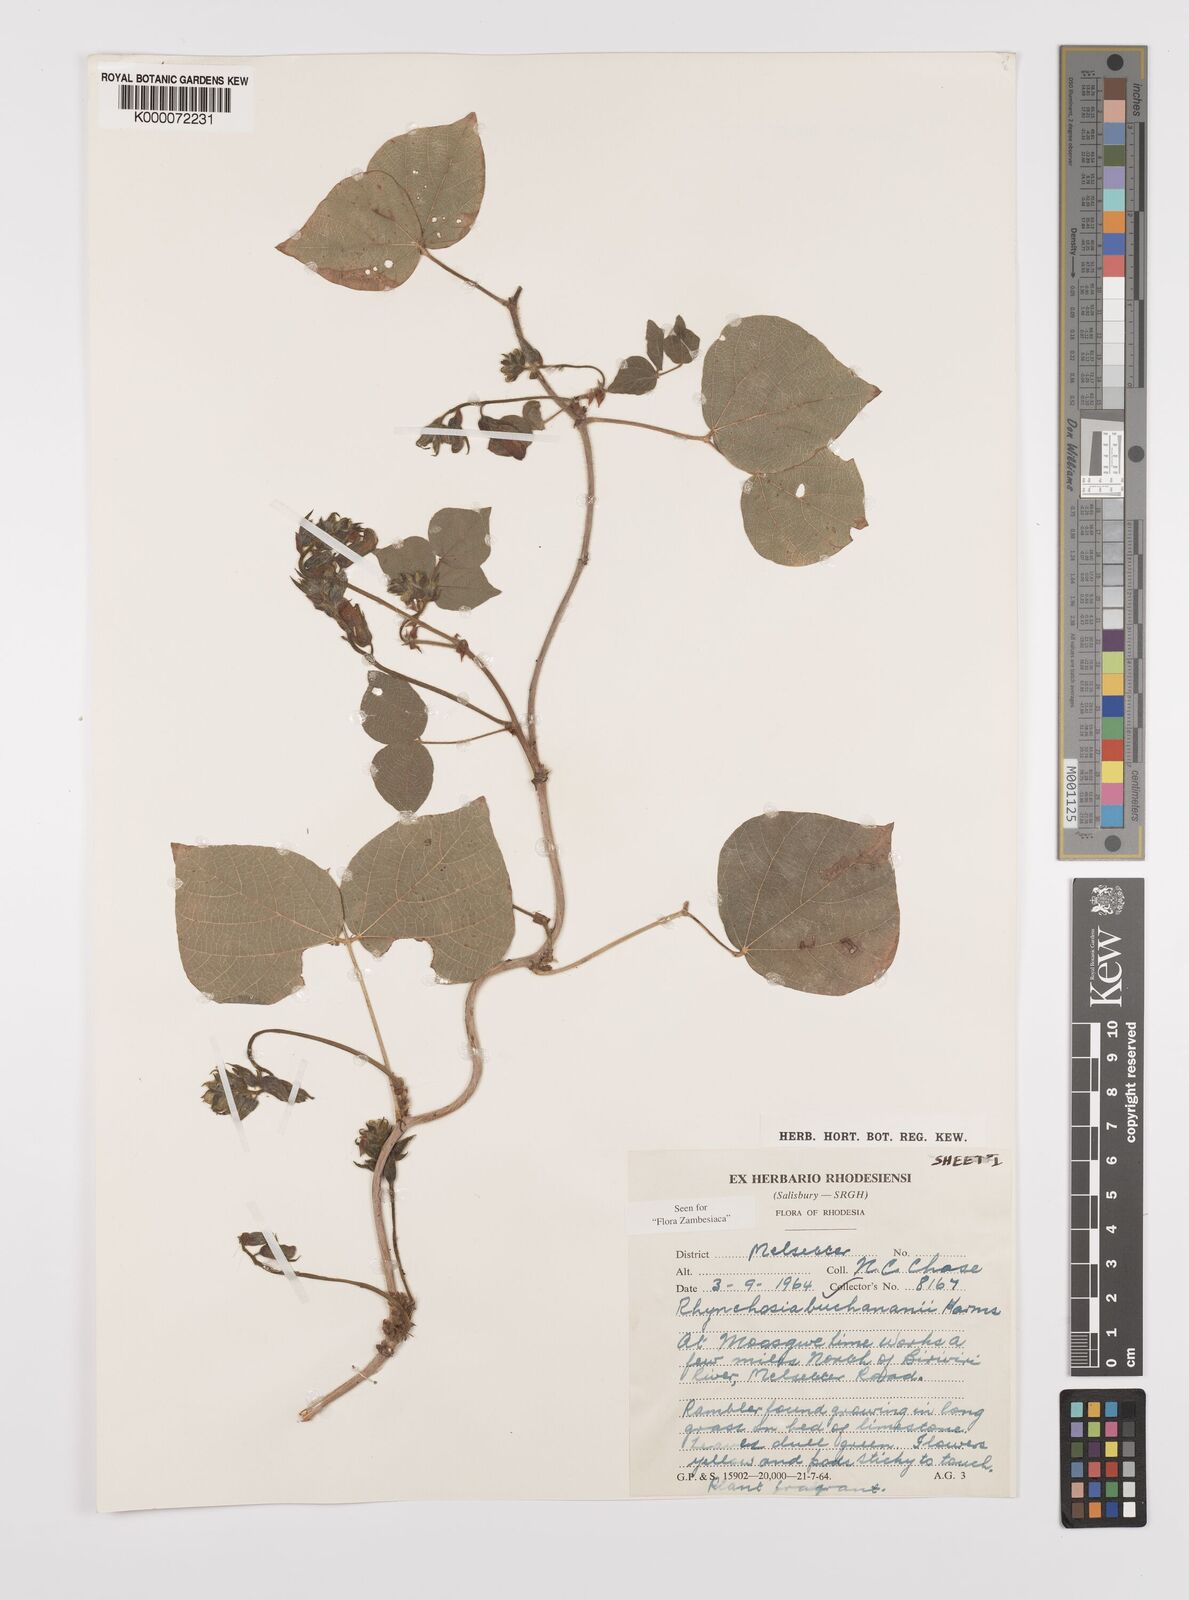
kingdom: Plantae
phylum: Tracheophyta
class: Magnoliopsida
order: Fabales
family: Fabaceae
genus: Rhynchosia
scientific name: Rhynchosia buchananii
